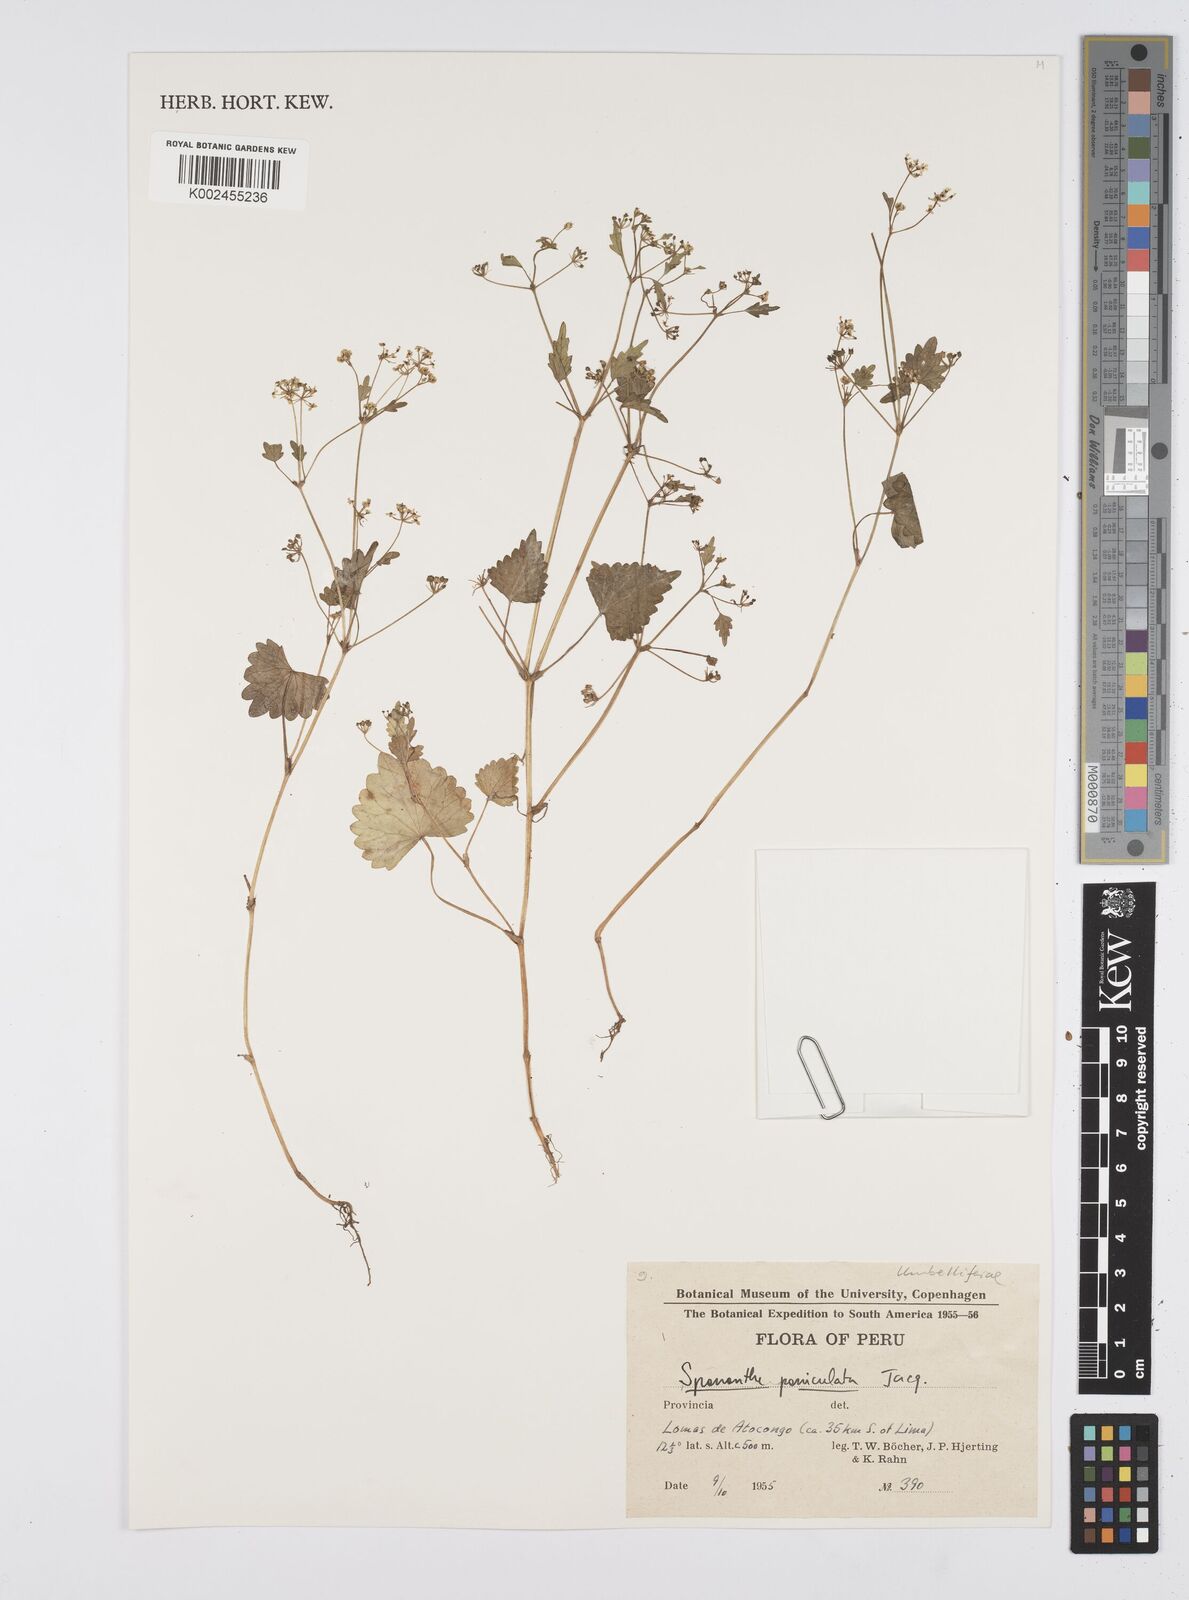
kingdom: Plantae
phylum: Tracheophyta
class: Magnoliopsida
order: Apiales
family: Apiaceae
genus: Azorella
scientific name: Azorella
